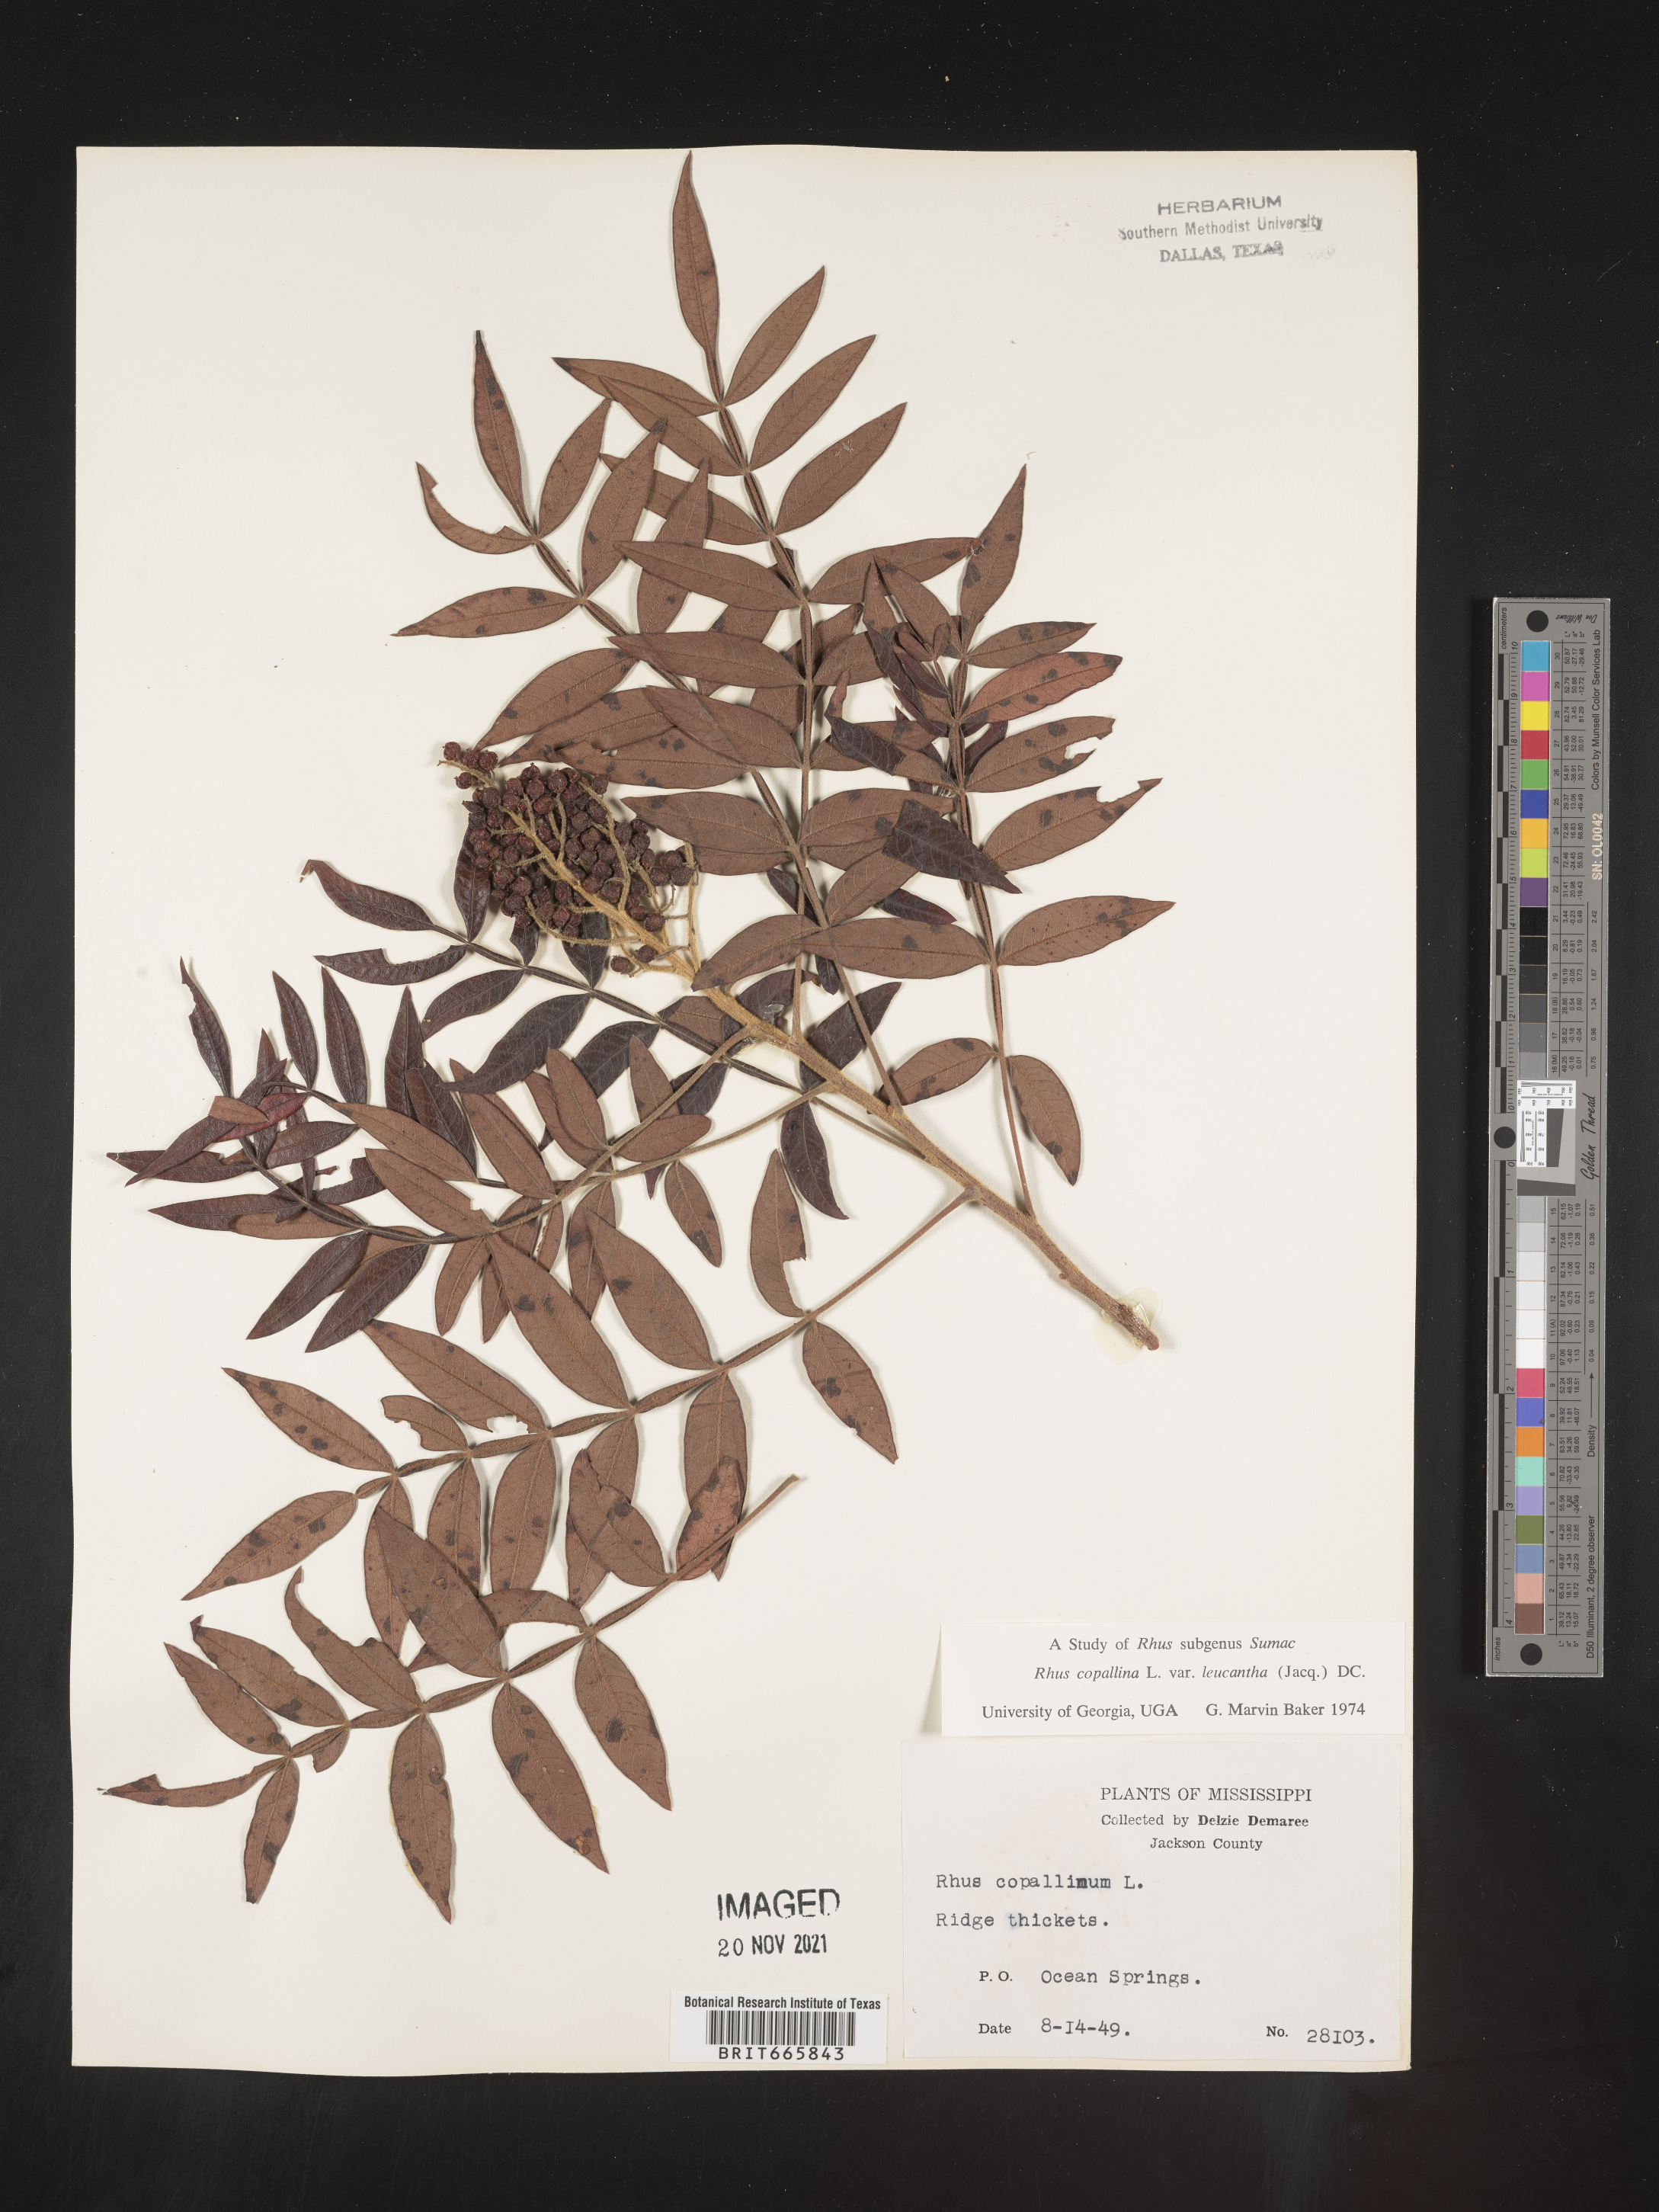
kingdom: Plantae
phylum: Tracheophyta
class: Magnoliopsida
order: Sapindales
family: Anacardiaceae
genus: Rhus
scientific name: Rhus copallina
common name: Shining sumac
